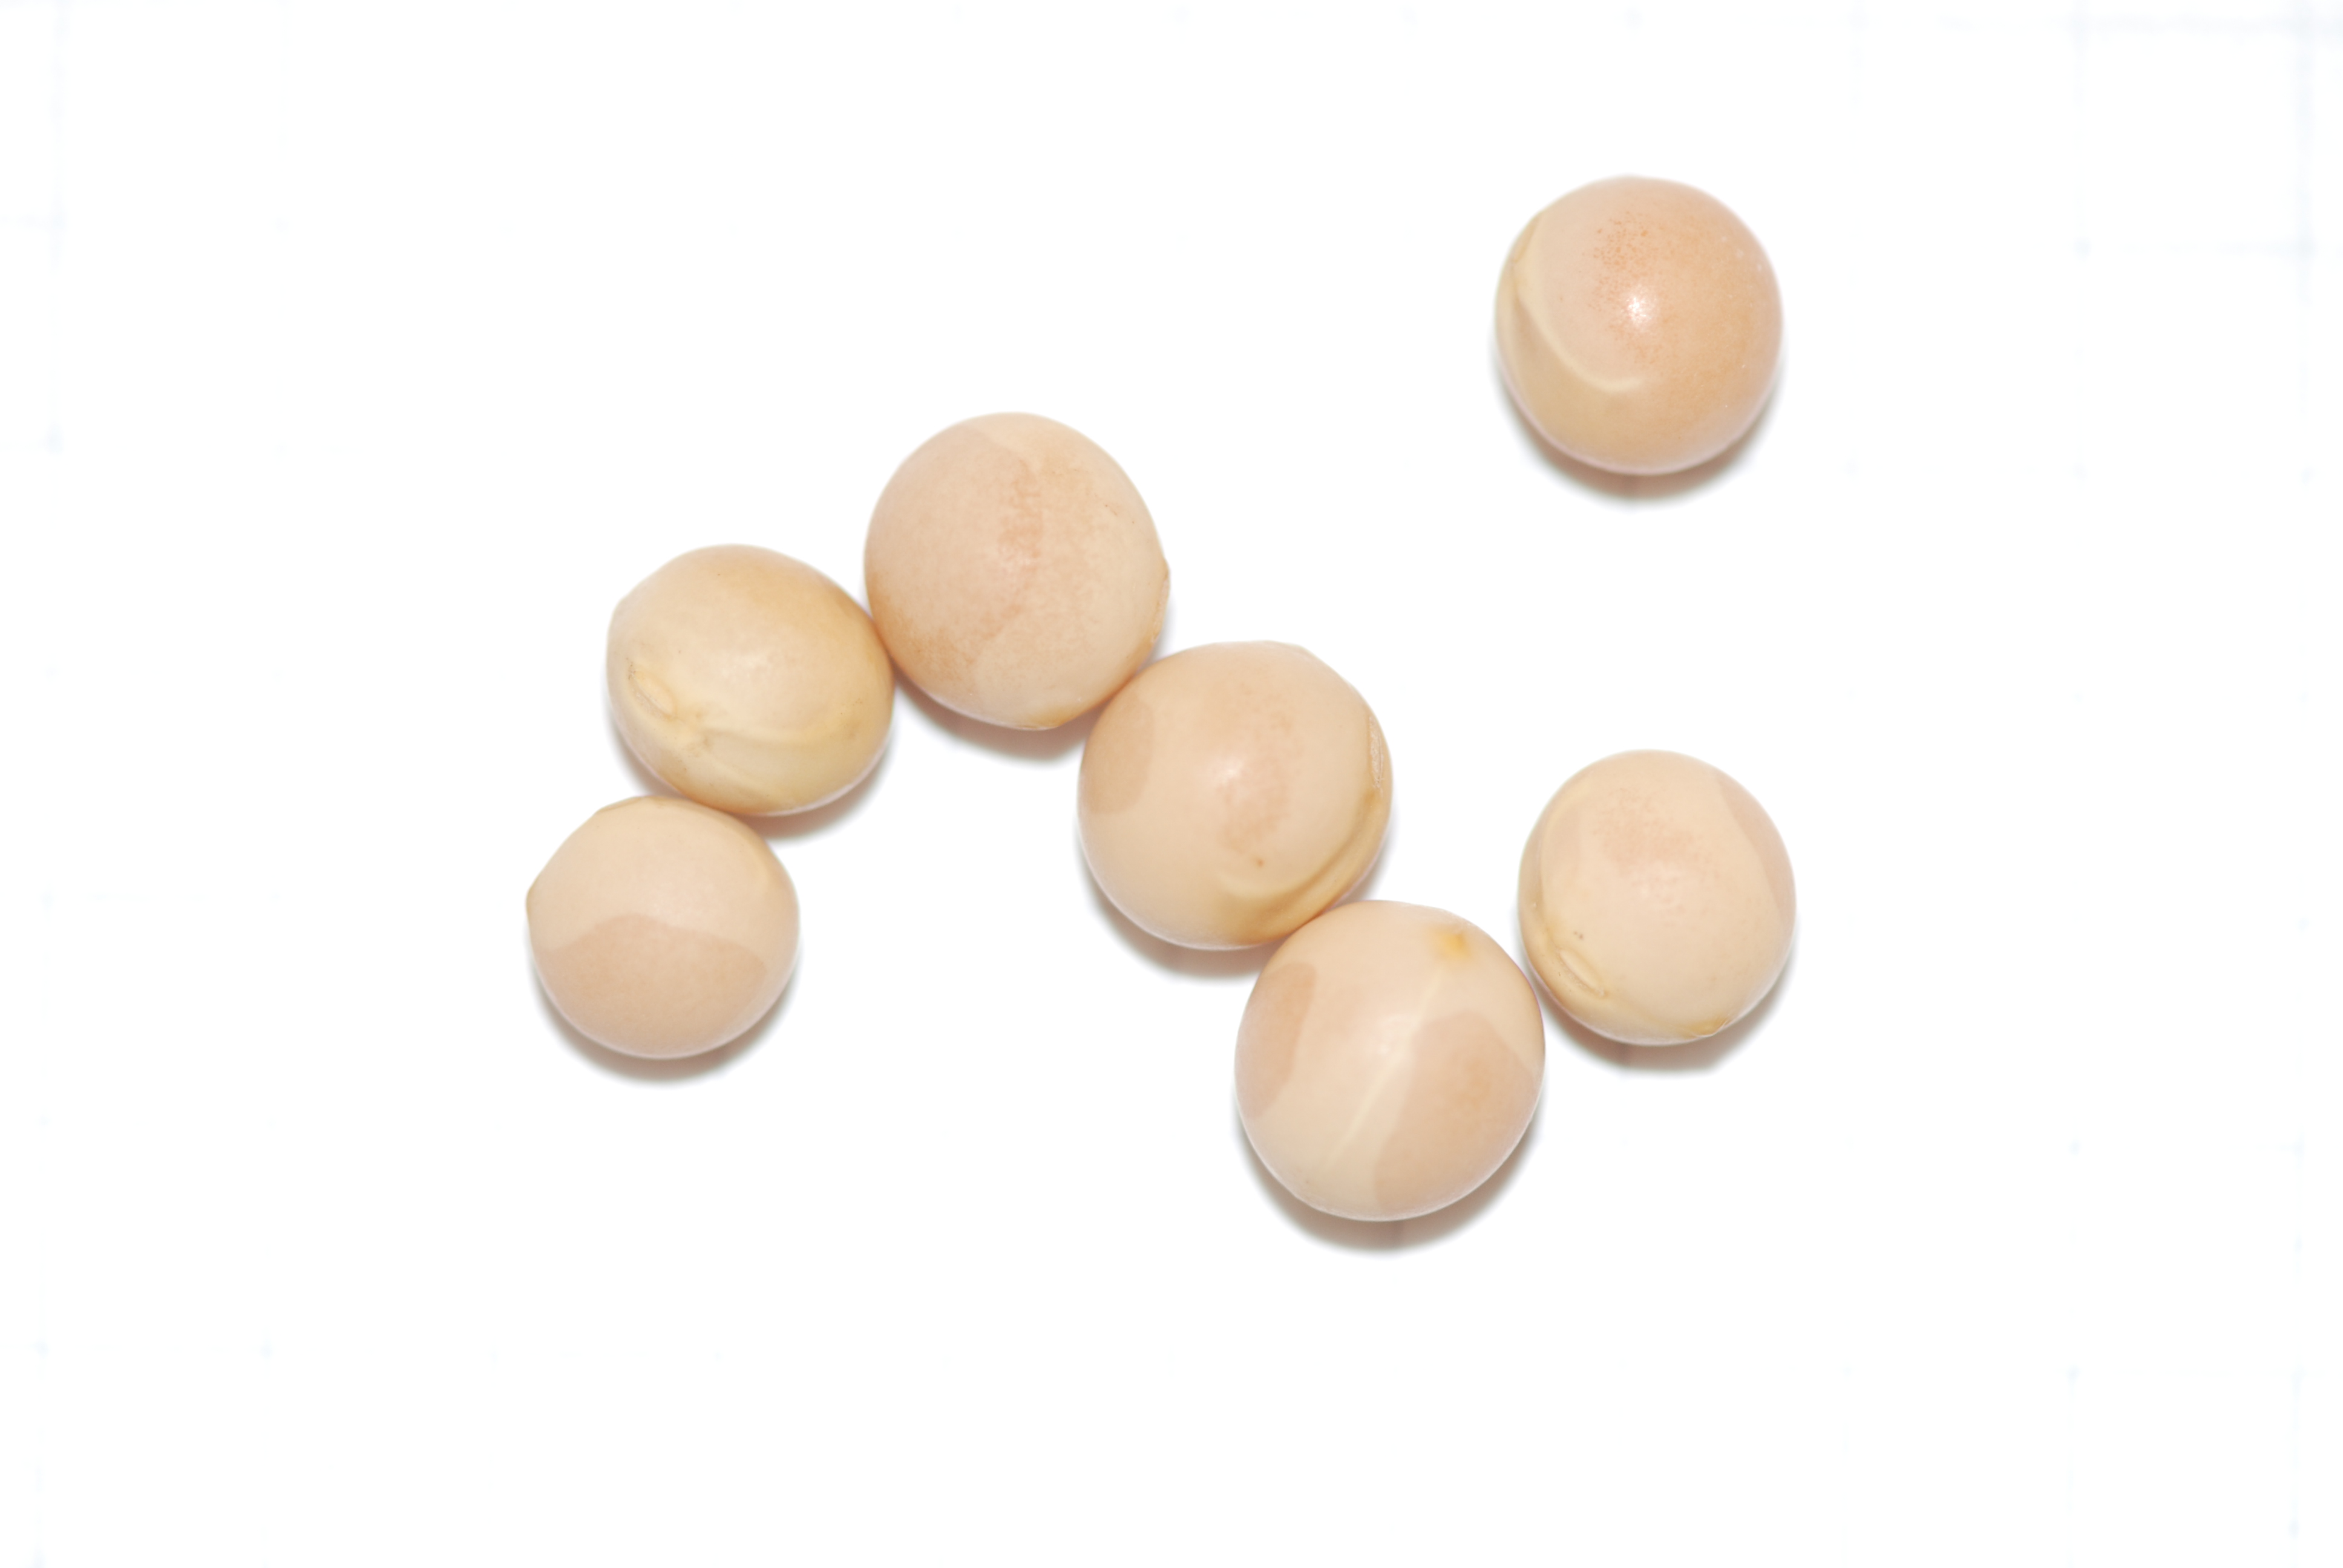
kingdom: Plantae
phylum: Tracheophyta
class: Magnoliopsida
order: Fabales
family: Fabaceae
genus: Lathyrus
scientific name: Lathyrus oleraceus
